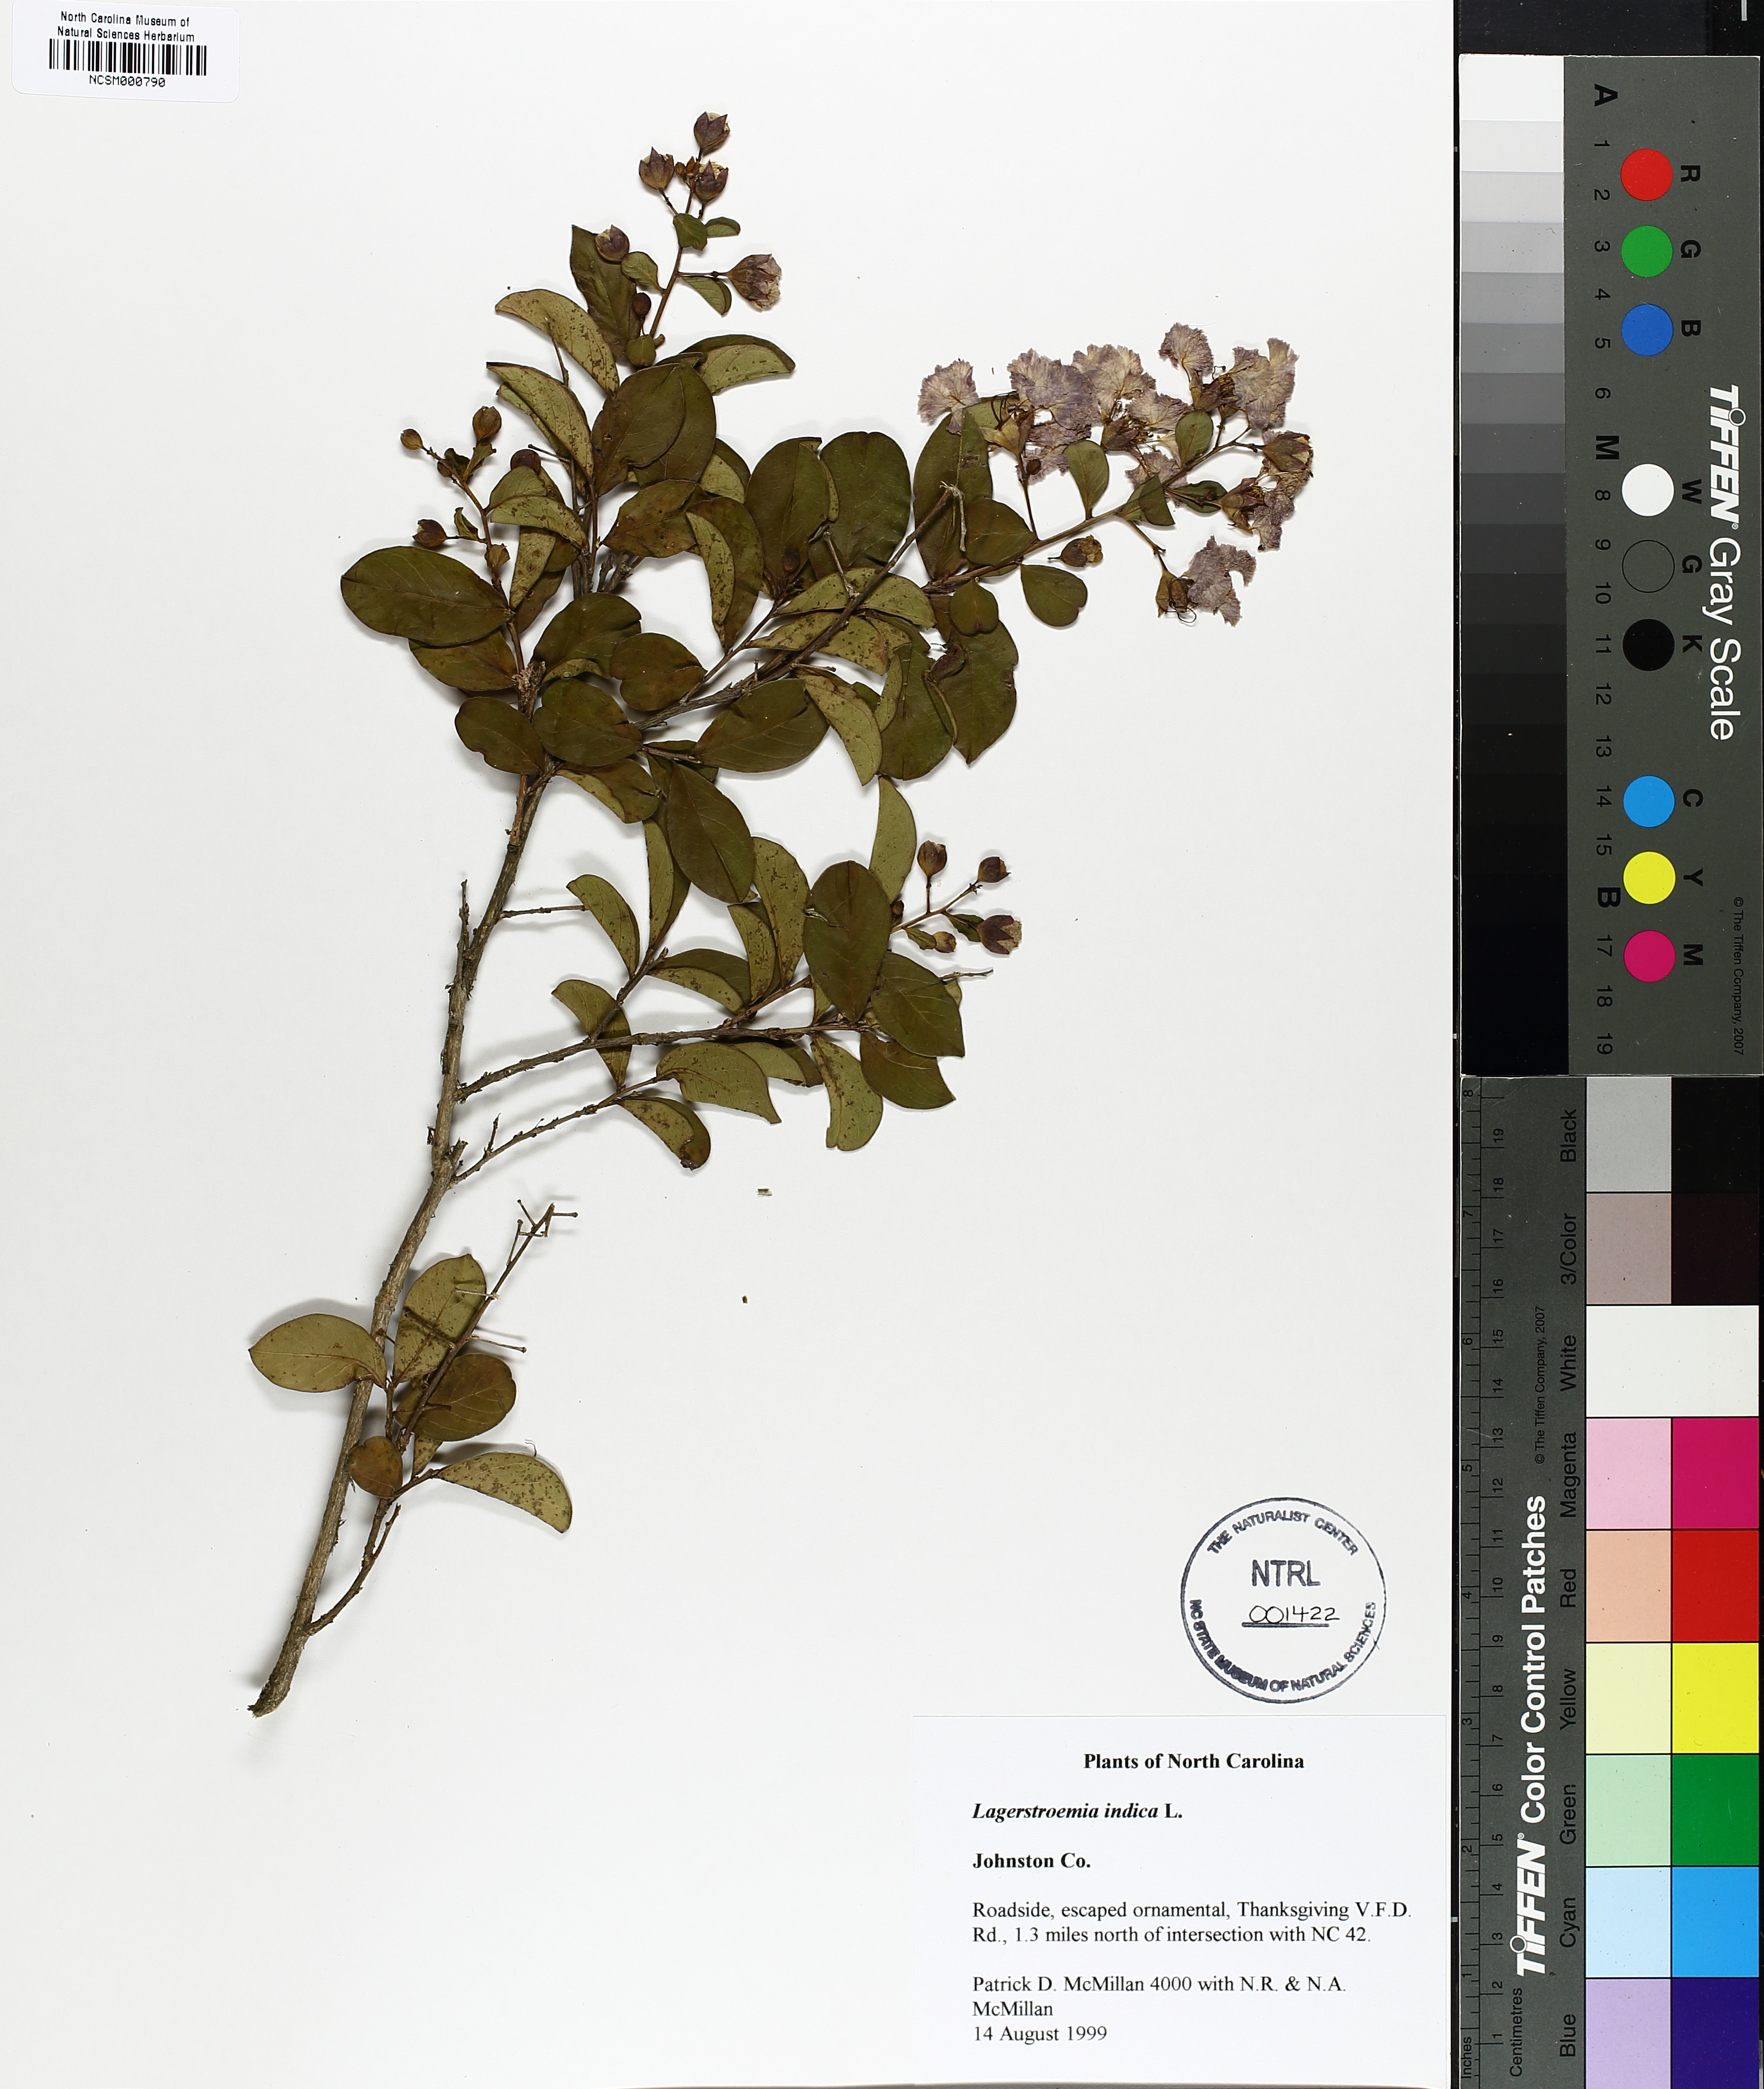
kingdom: Plantae
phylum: Tracheophyta
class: Magnoliopsida
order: Myrtales
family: Lythraceae
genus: Lagerstroemia
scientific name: Lagerstroemia indica
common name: Crape-myrtle
